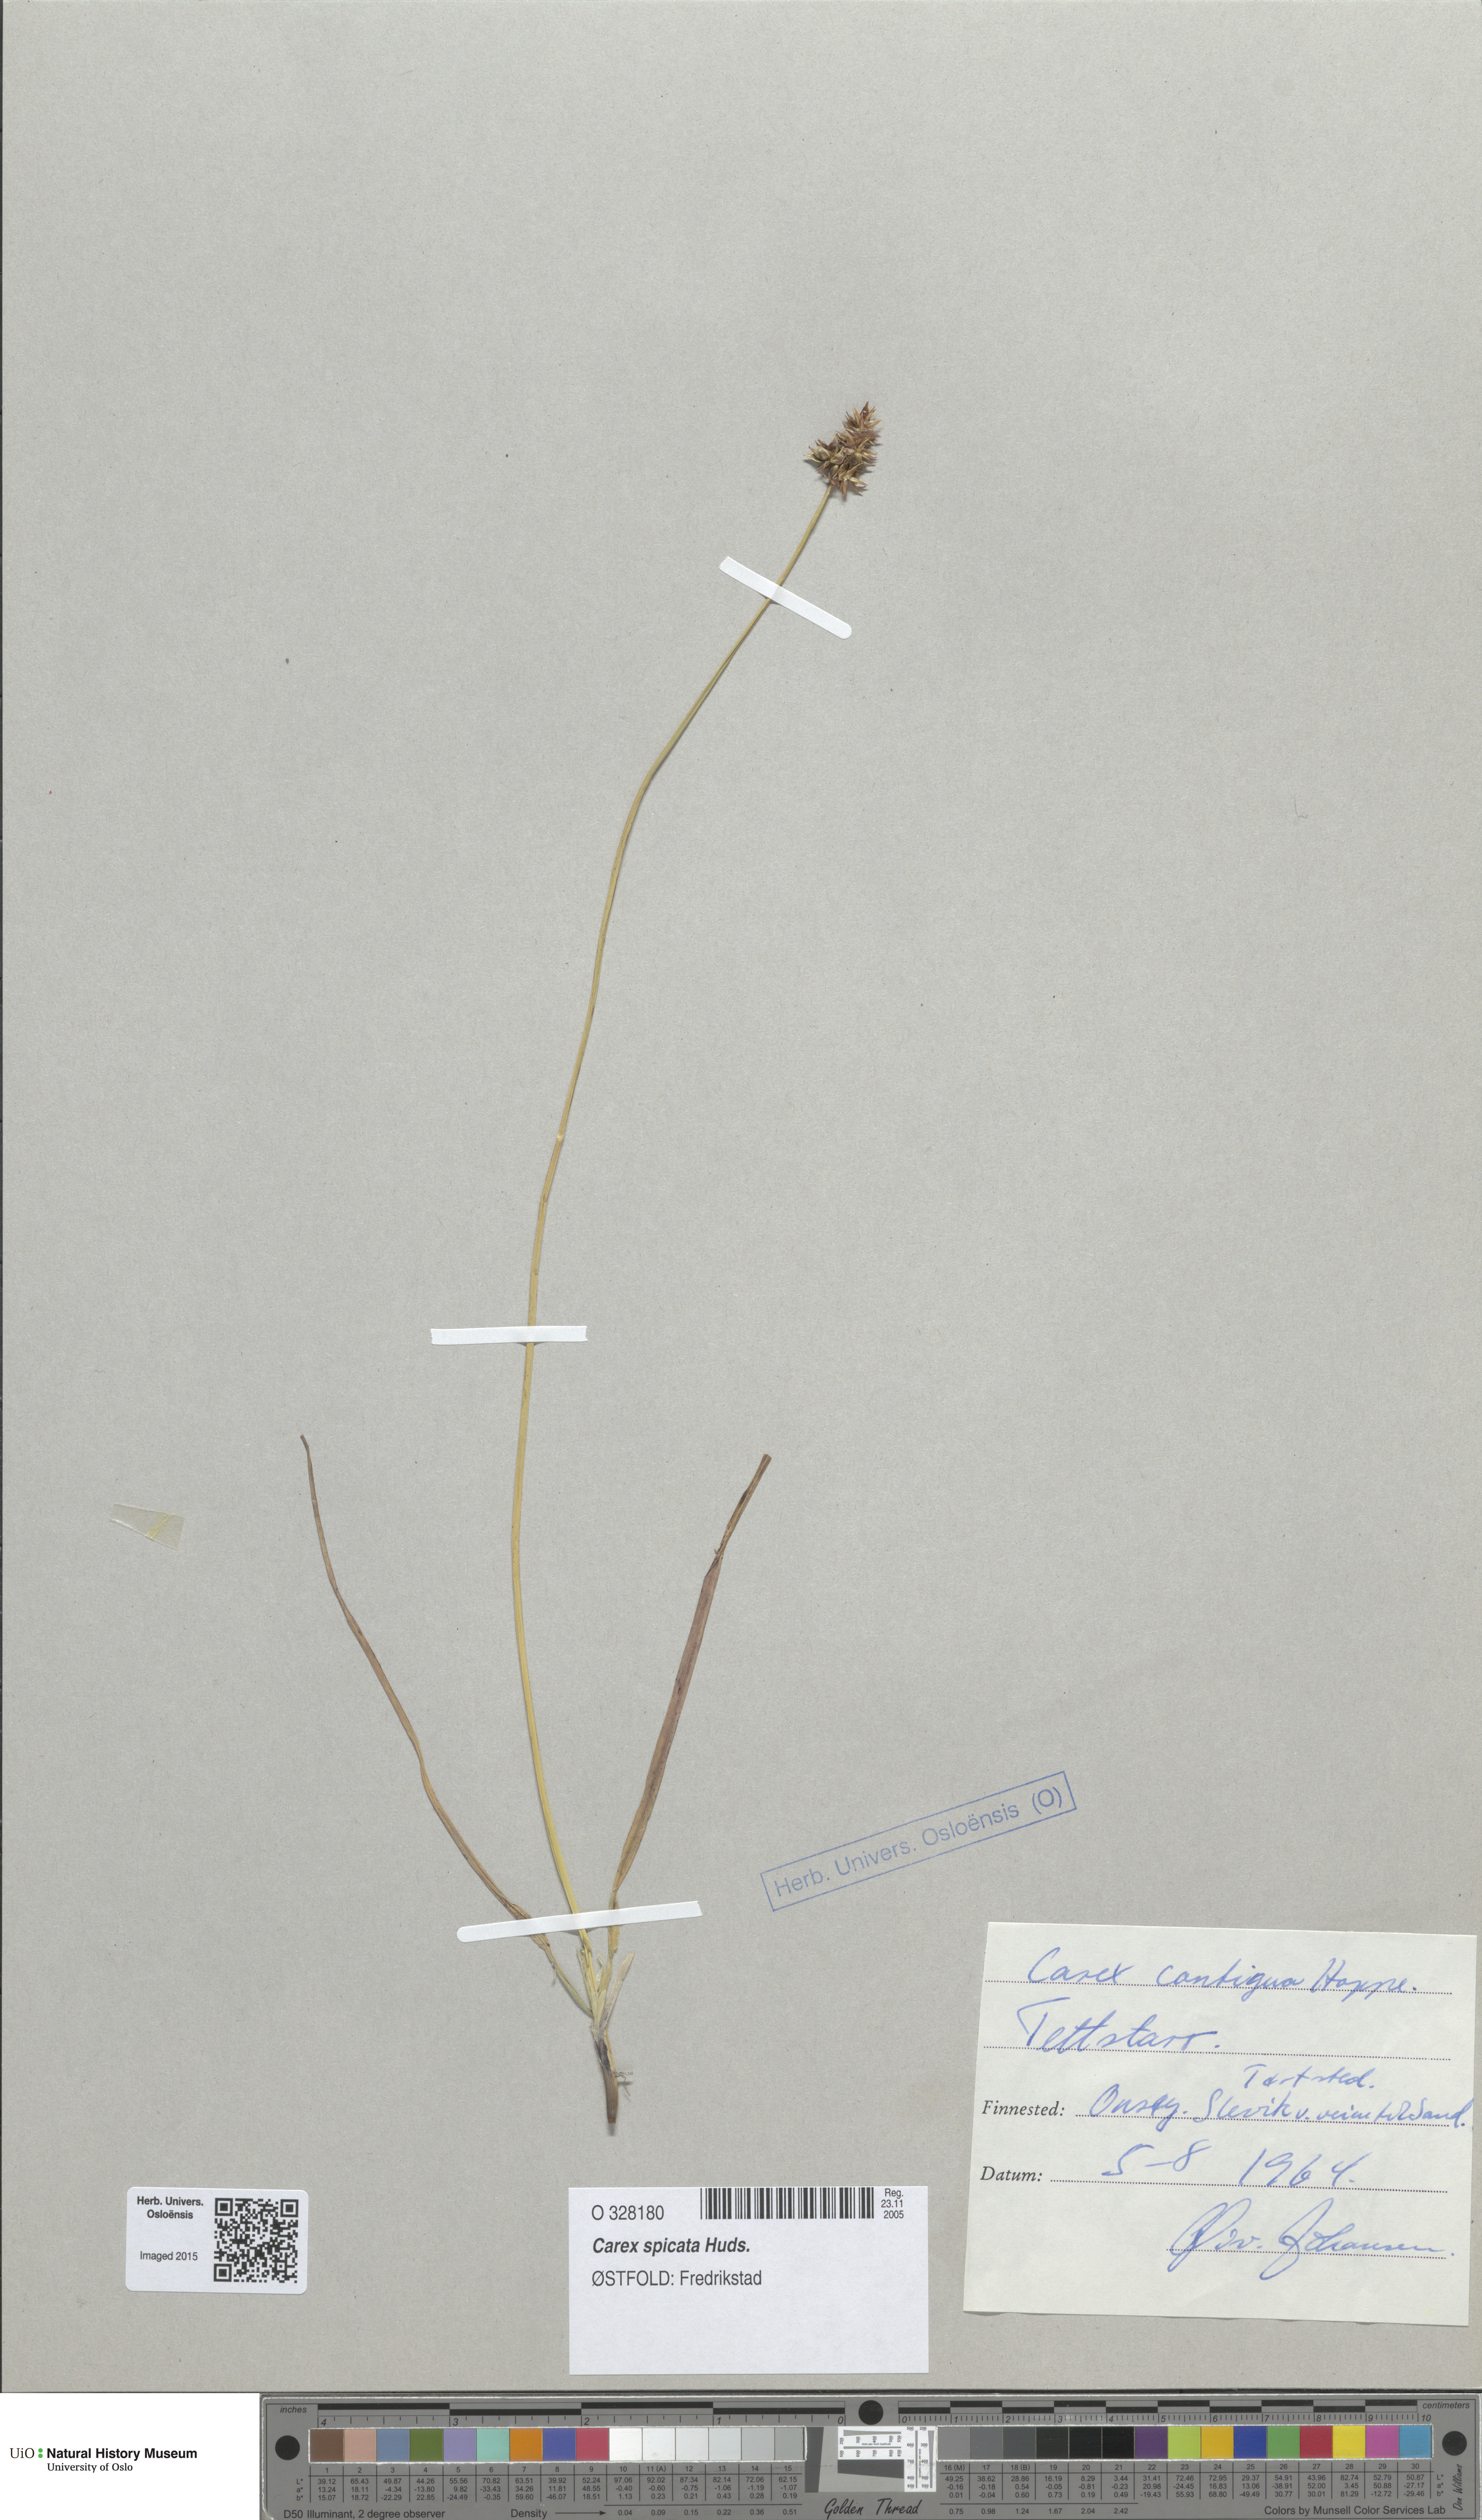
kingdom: Plantae
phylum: Tracheophyta
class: Liliopsida
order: Poales
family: Cyperaceae
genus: Carex
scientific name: Carex spicata
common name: Spiked sedge
